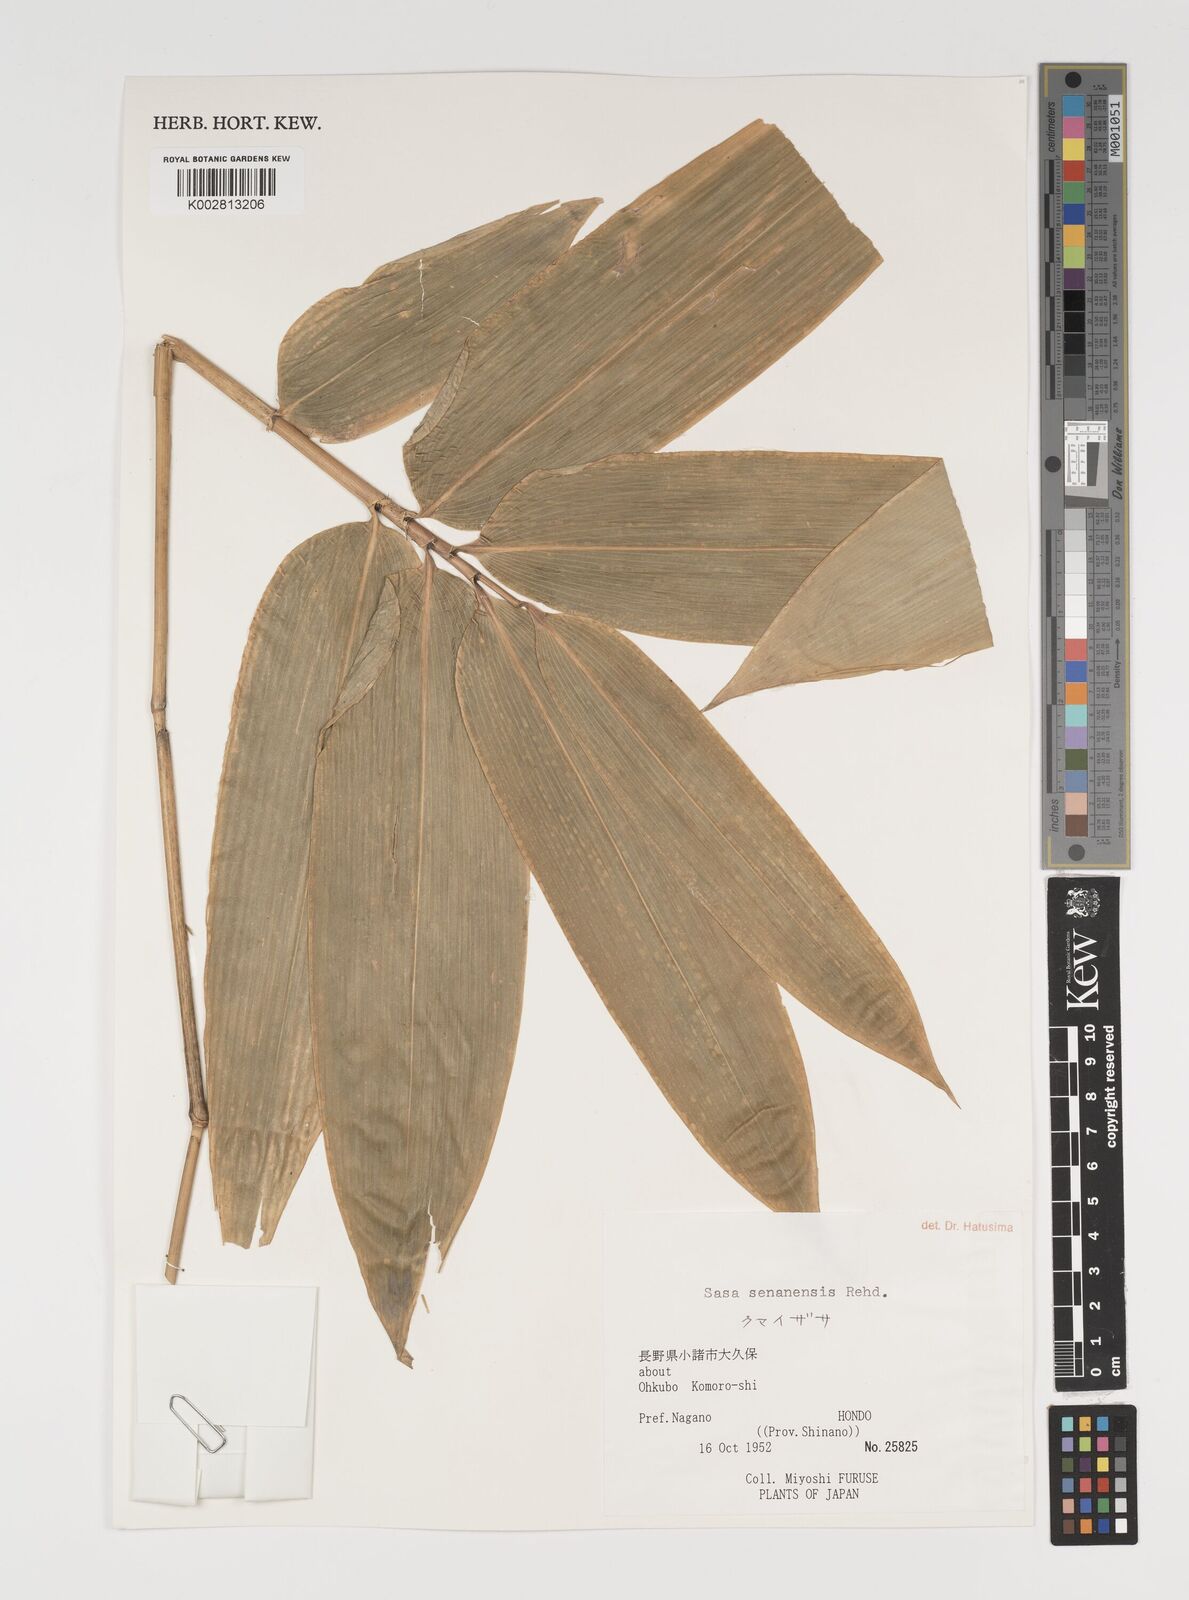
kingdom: Plantae
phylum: Tracheophyta
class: Liliopsida
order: Poales
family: Poaceae
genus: Sasa
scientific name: Sasa senanensis
